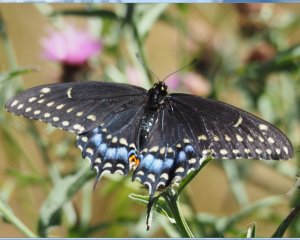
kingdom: Animalia
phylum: Arthropoda
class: Insecta
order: Lepidoptera
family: Papilionidae
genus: Papilio
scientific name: Papilio polyxenes
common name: Black Swallowtail
